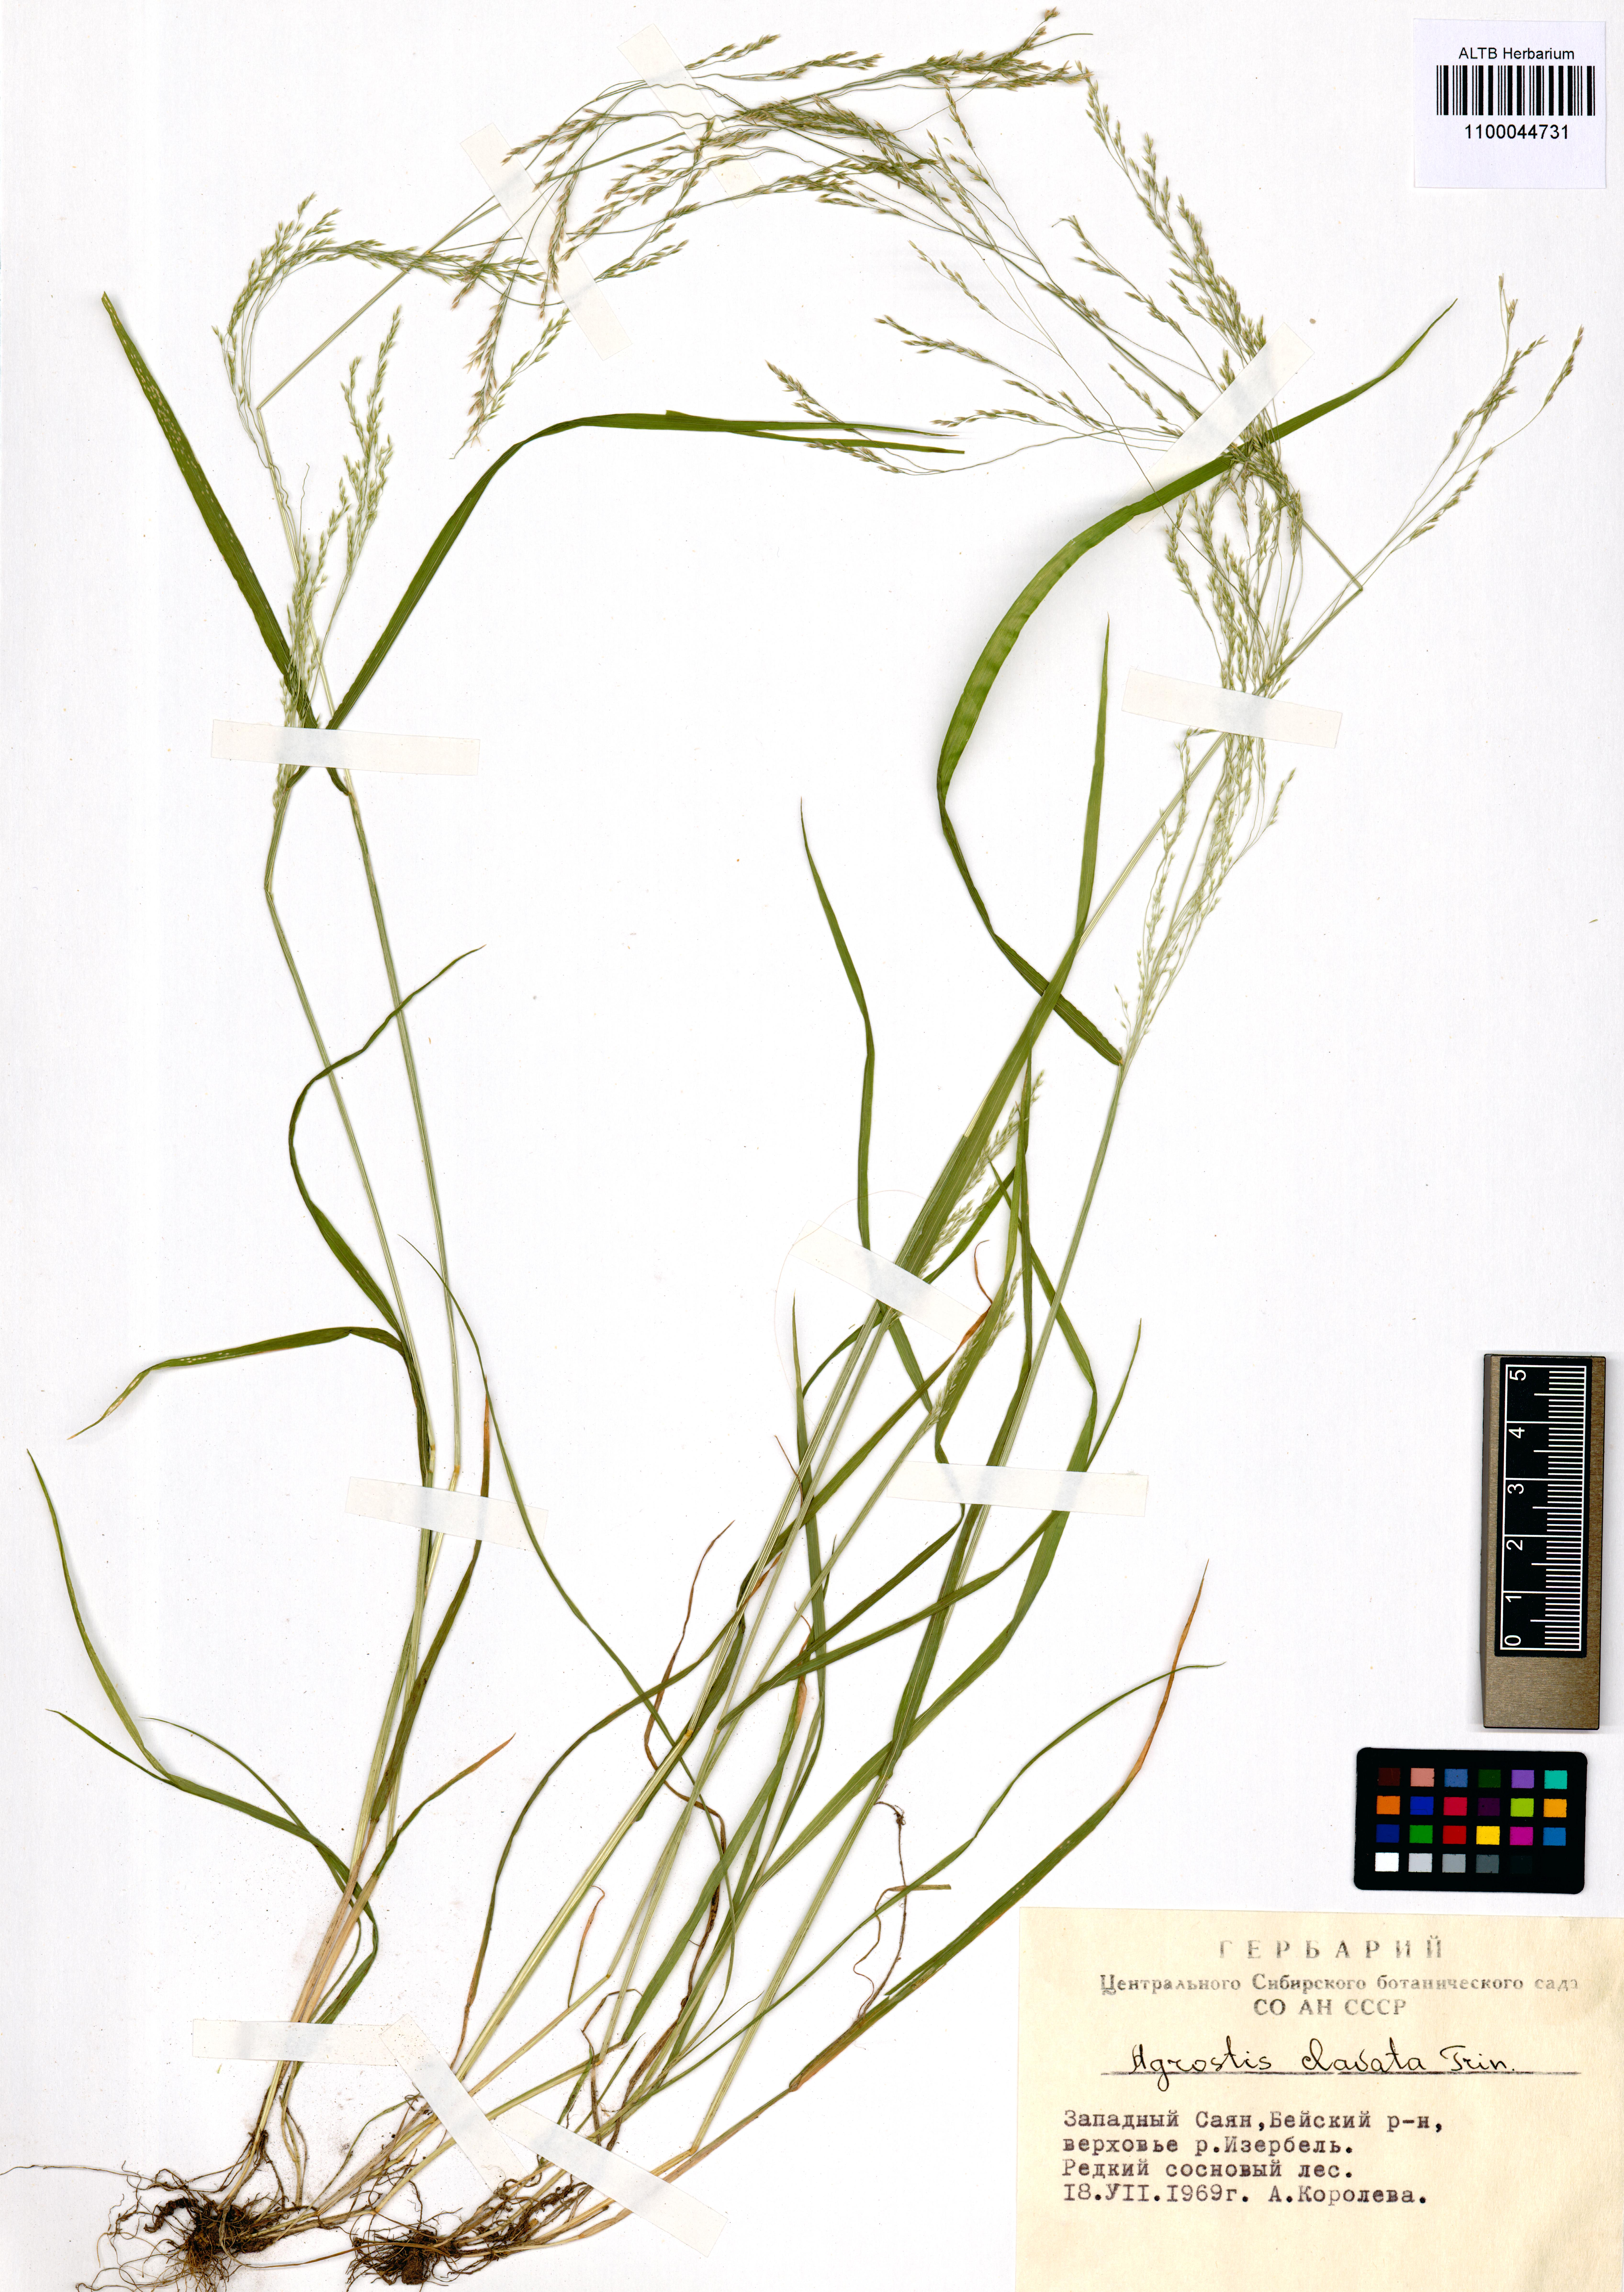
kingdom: Plantae
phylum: Tracheophyta
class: Liliopsida
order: Poales
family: Poaceae
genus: Agrostis
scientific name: Agrostis clavata
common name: Clavate bent
